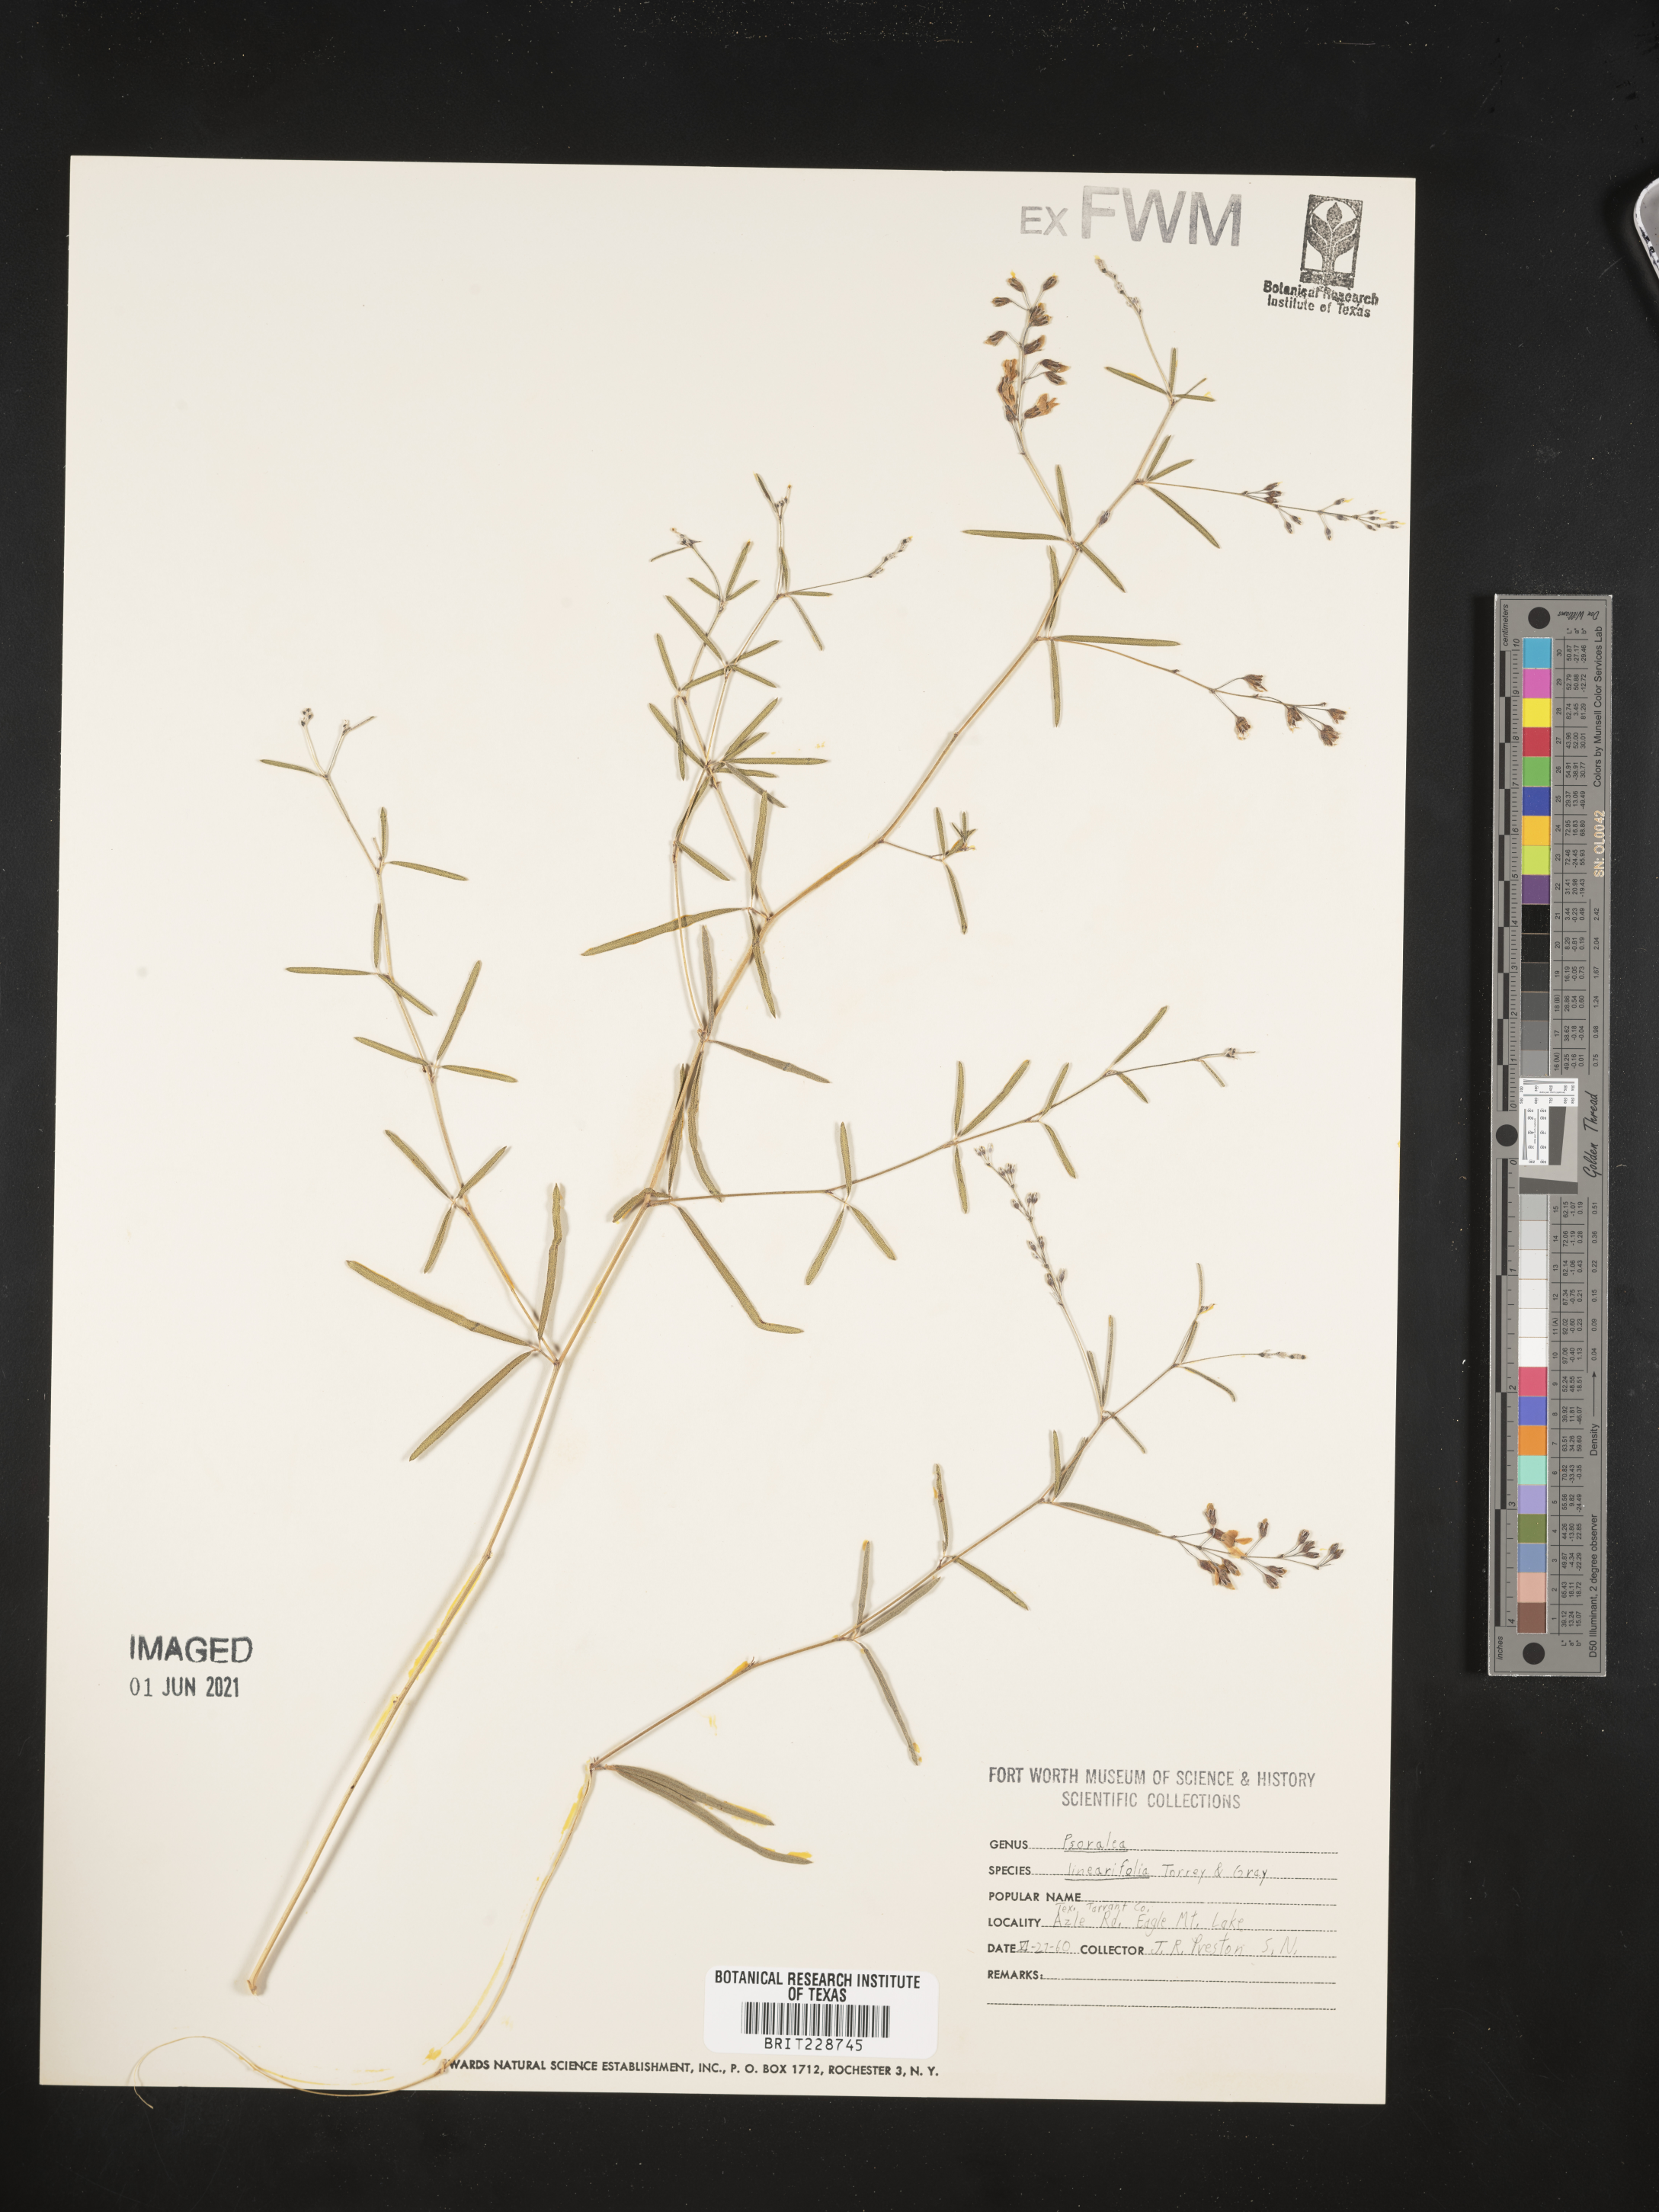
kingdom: Plantae
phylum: Tracheophyta
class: Magnoliopsida
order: Fabales
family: Fabaceae
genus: Pediomelum
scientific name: Pediomelum linearifolium
